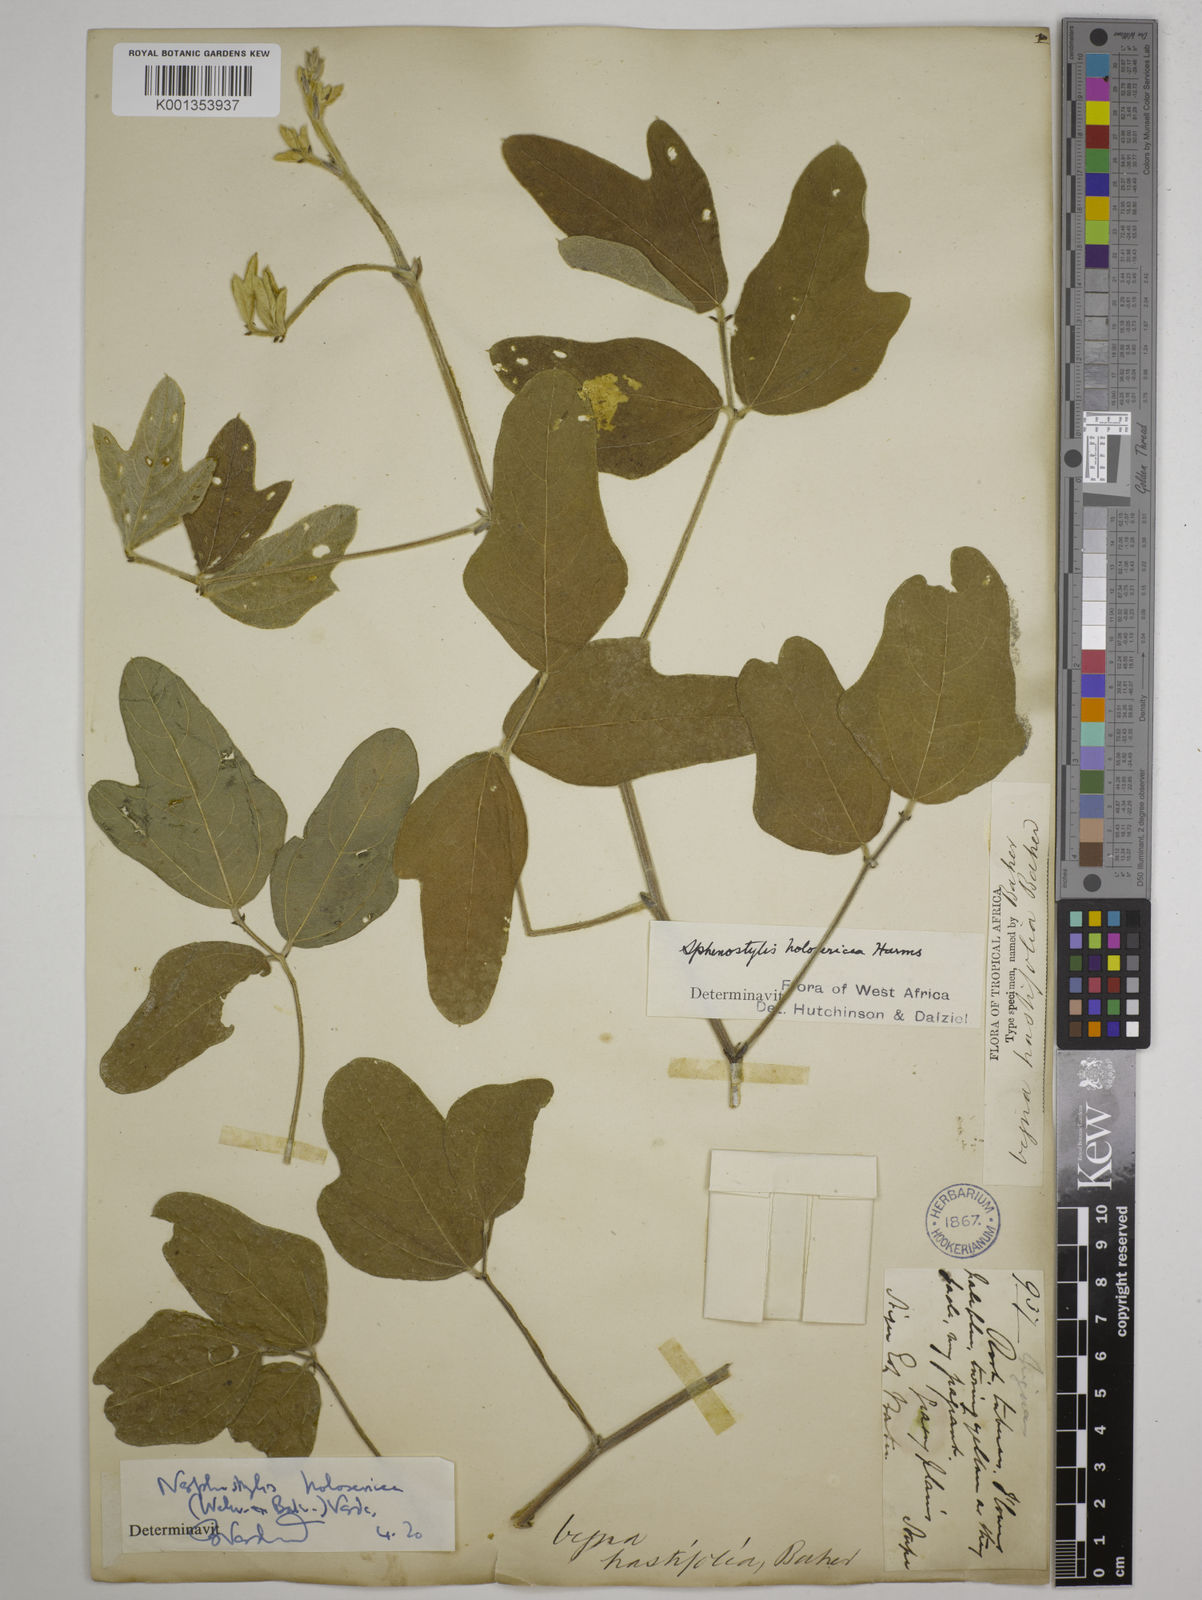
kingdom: Plantae
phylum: Tracheophyta
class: Magnoliopsida
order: Fabales
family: Fabaceae
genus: Nesphostylis
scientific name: Nesphostylis holosericea
